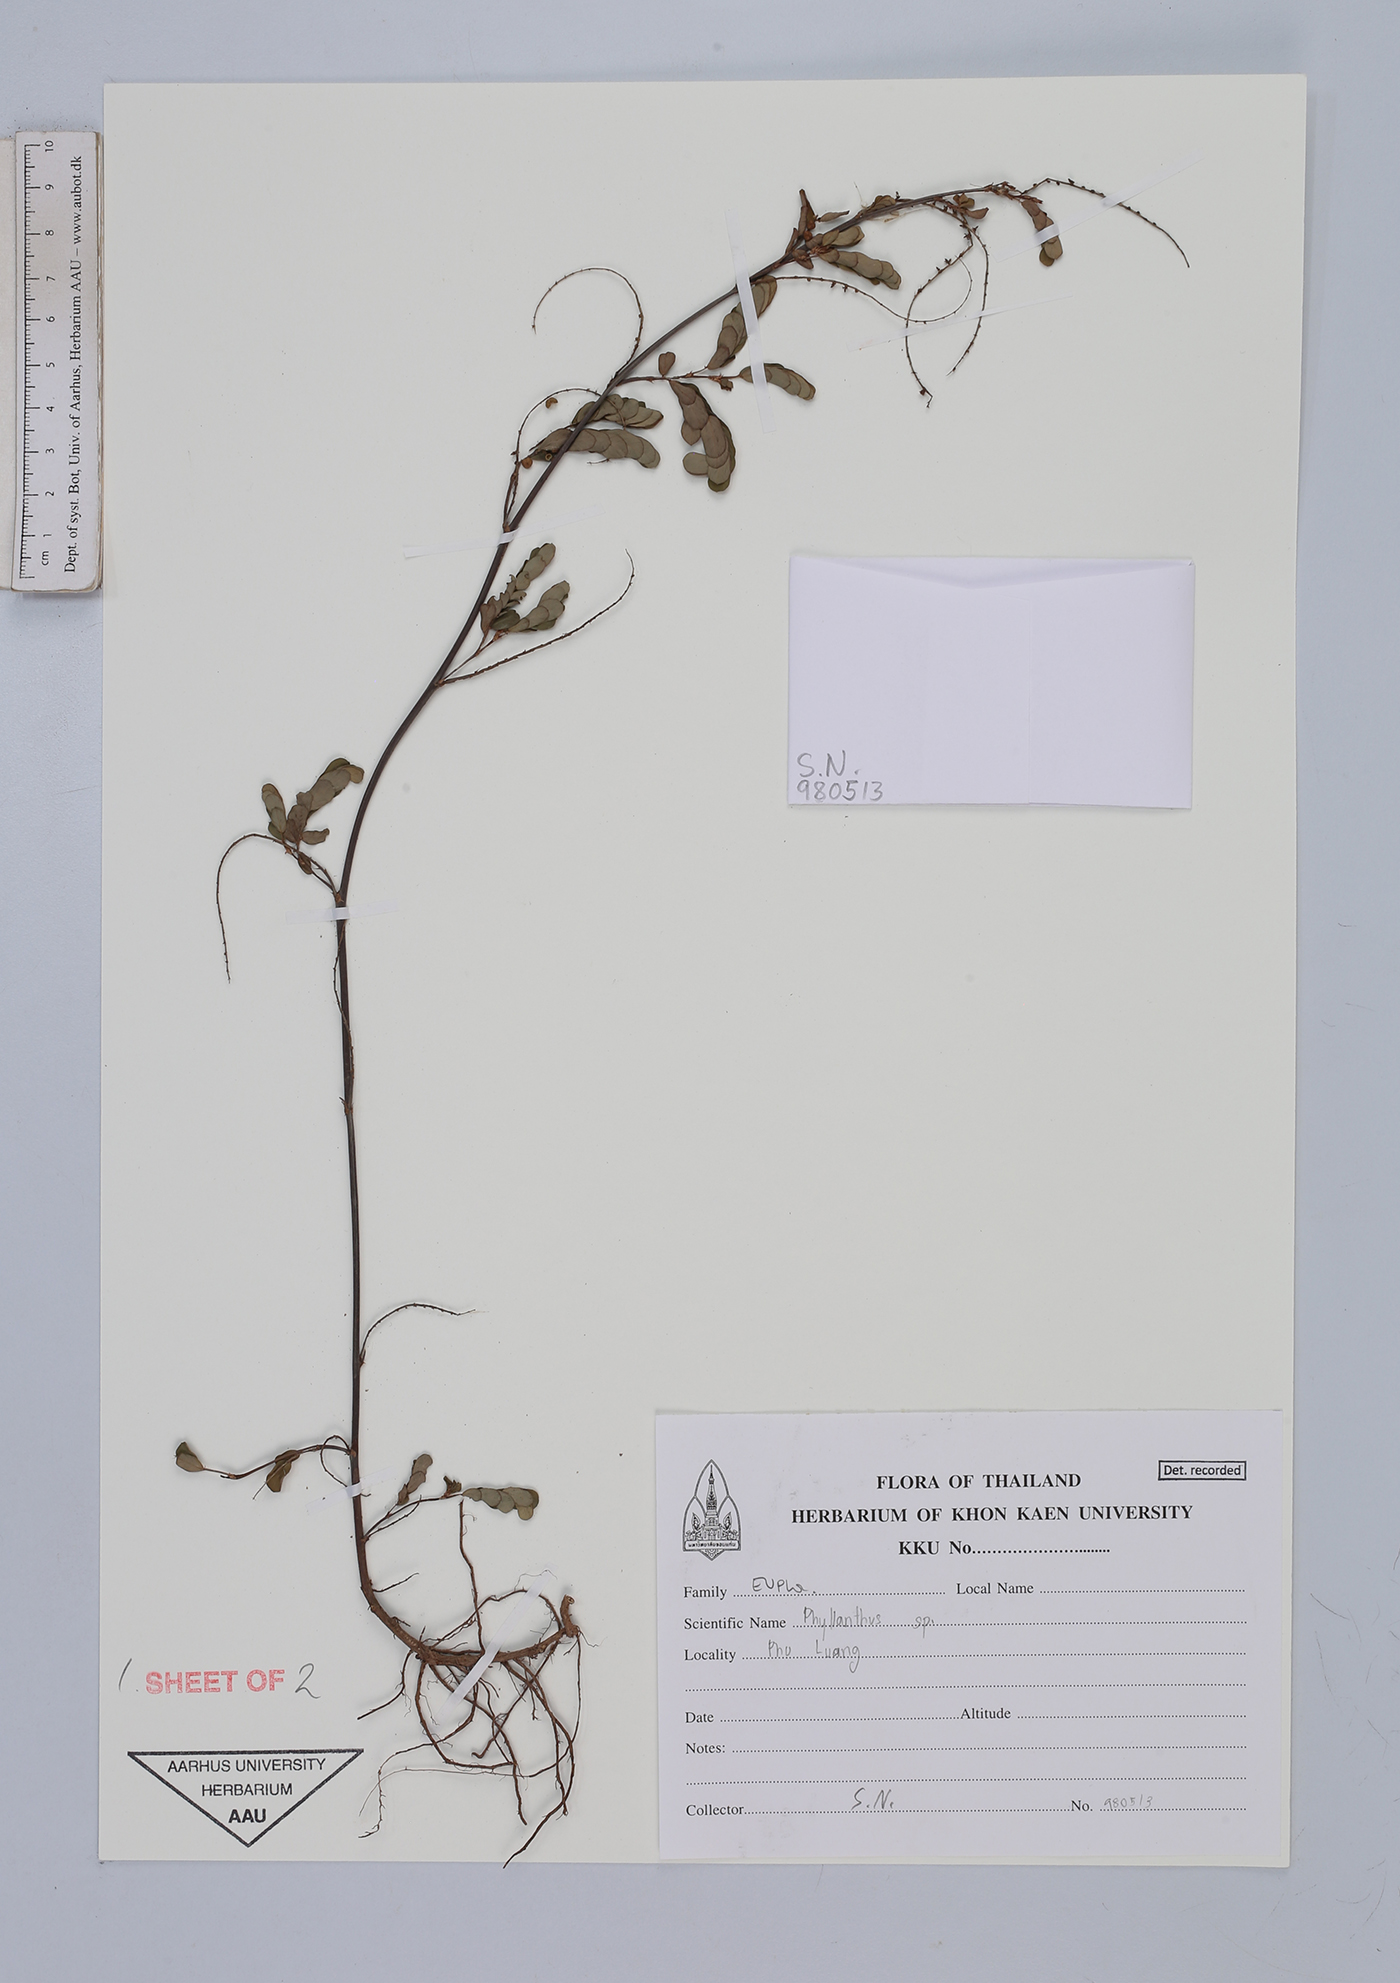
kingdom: Plantae
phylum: Tracheophyta
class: Magnoliopsida
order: Malpighiales
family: Euphorbiaceae
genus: Phyllanthos
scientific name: Phyllanthos
